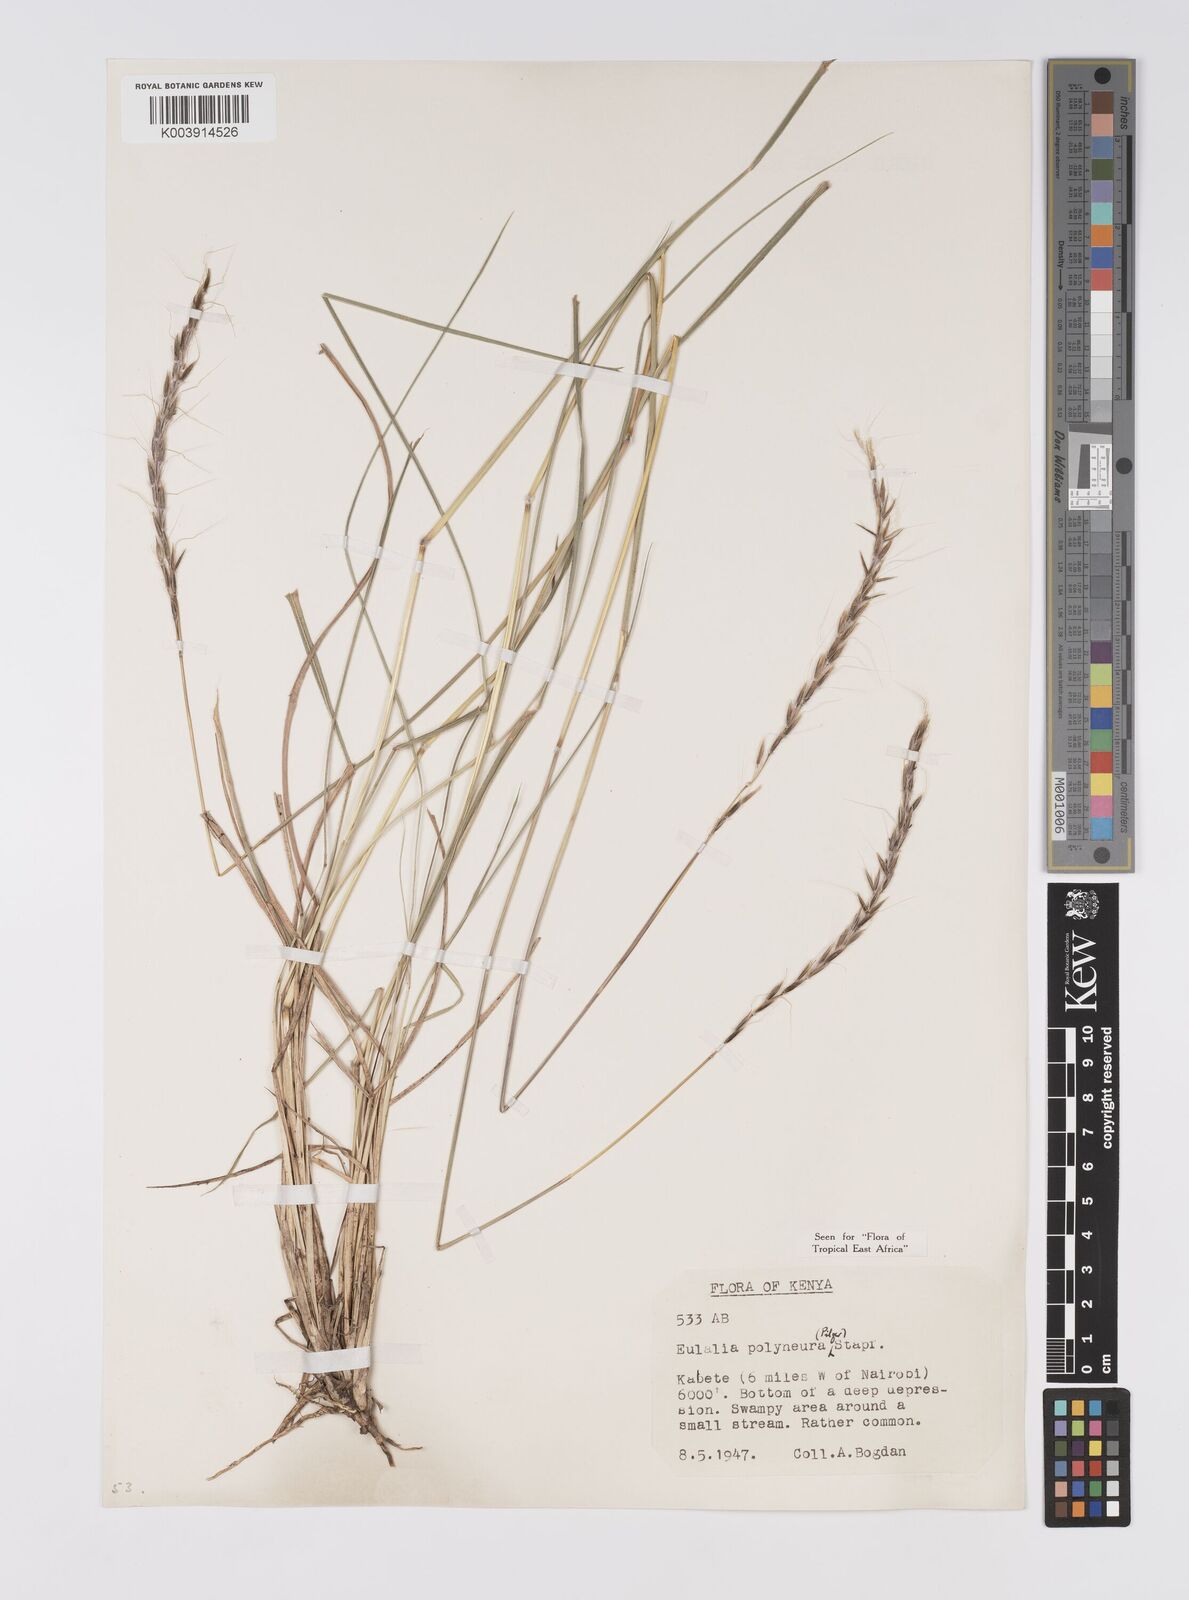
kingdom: Plantae
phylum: Tracheophyta
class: Liliopsida
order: Poales
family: Poaceae
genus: Eulalia
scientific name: Eulalia polyneura
